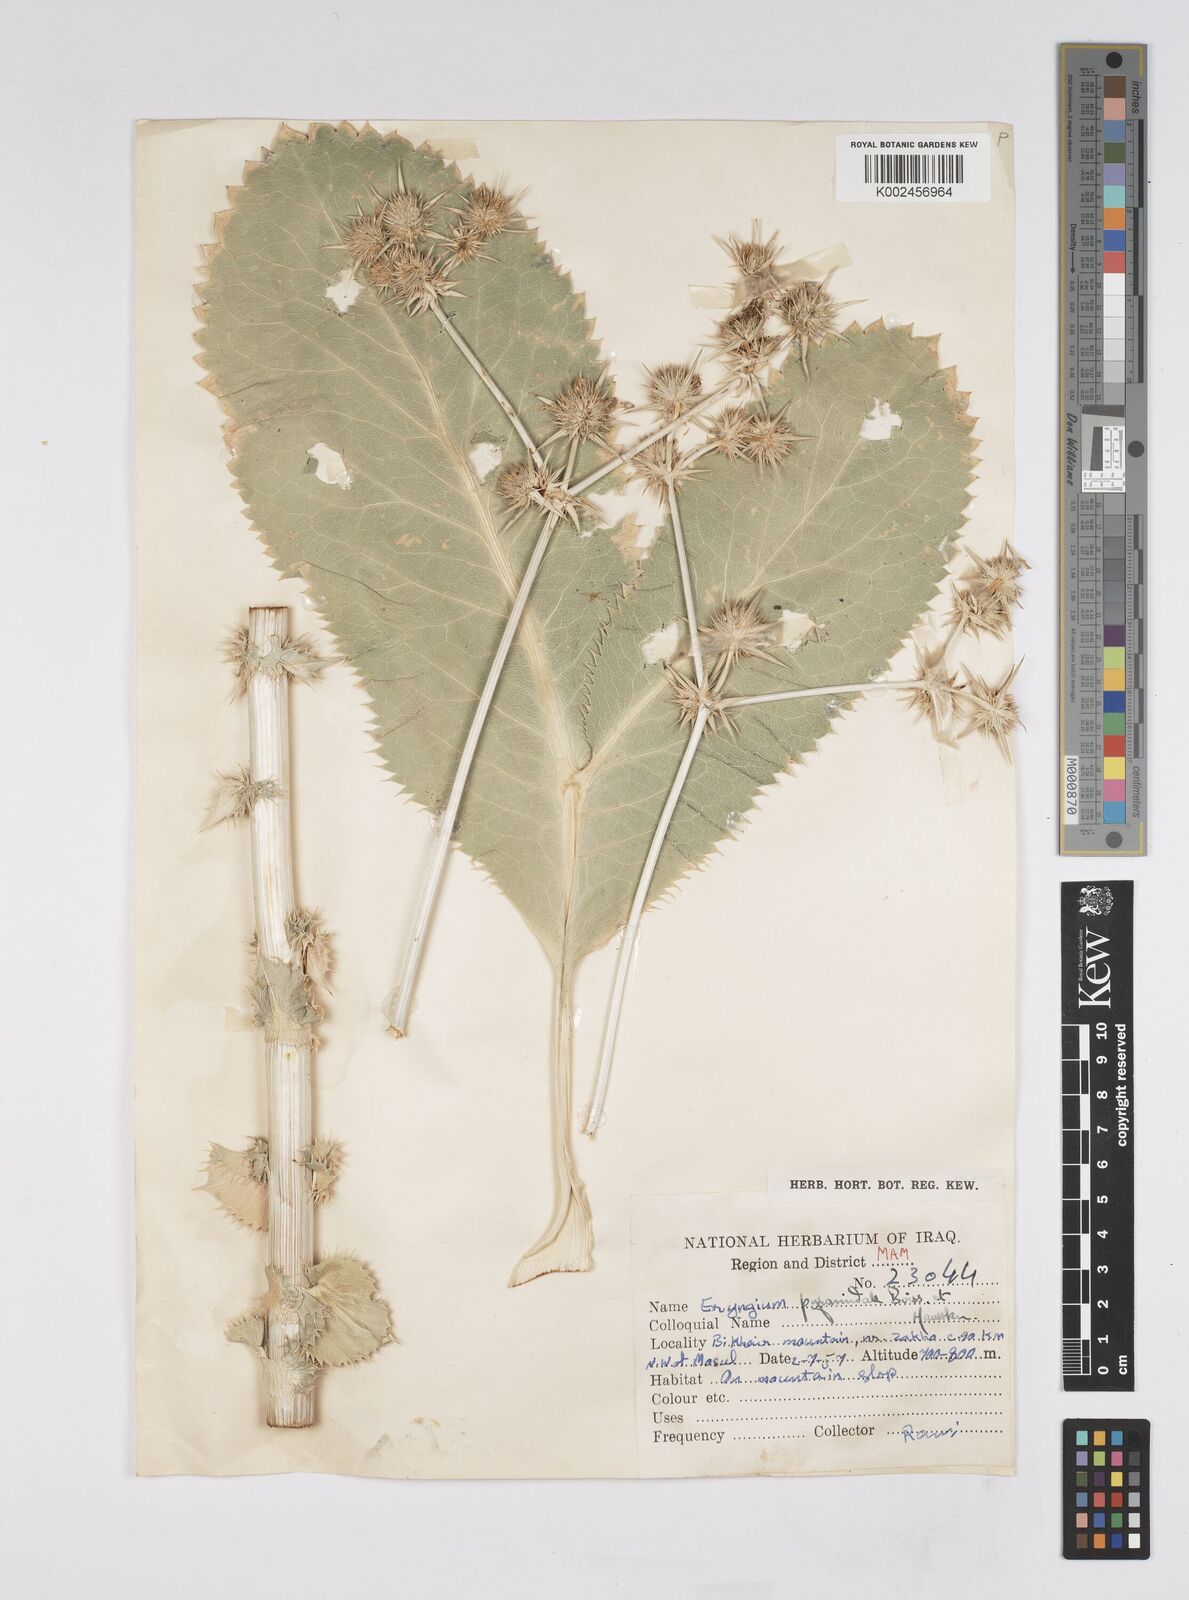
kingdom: Plantae
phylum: Tracheophyta
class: Magnoliopsida
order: Apiales
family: Apiaceae
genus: Eryngium
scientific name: Eryngium pyramidale
